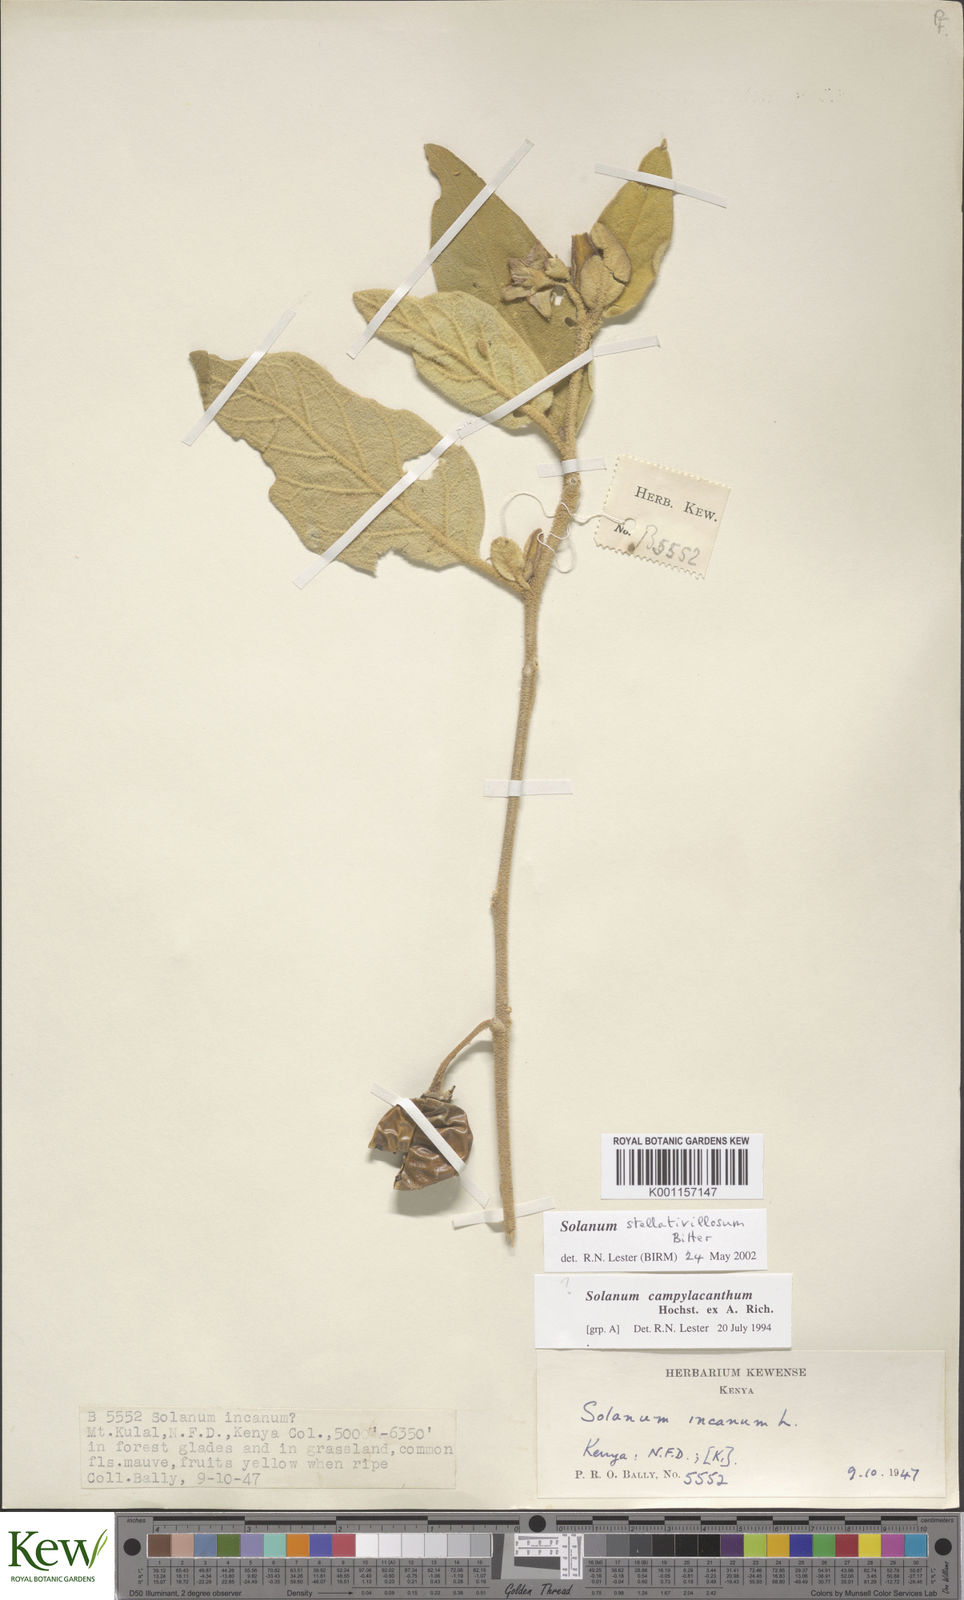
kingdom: Plantae
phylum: Tracheophyta
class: Magnoliopsida
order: Solanales
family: Solanaceae
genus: Solanum
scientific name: Solanum campylacanthum
